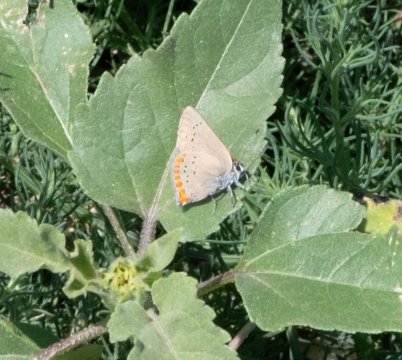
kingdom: Animalia
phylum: Arthropoda
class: Insecta
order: Lepidoptera
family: Lycaenidae
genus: Harkenclenus
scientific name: Harkenclenus titus
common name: Coral Hairstreak
